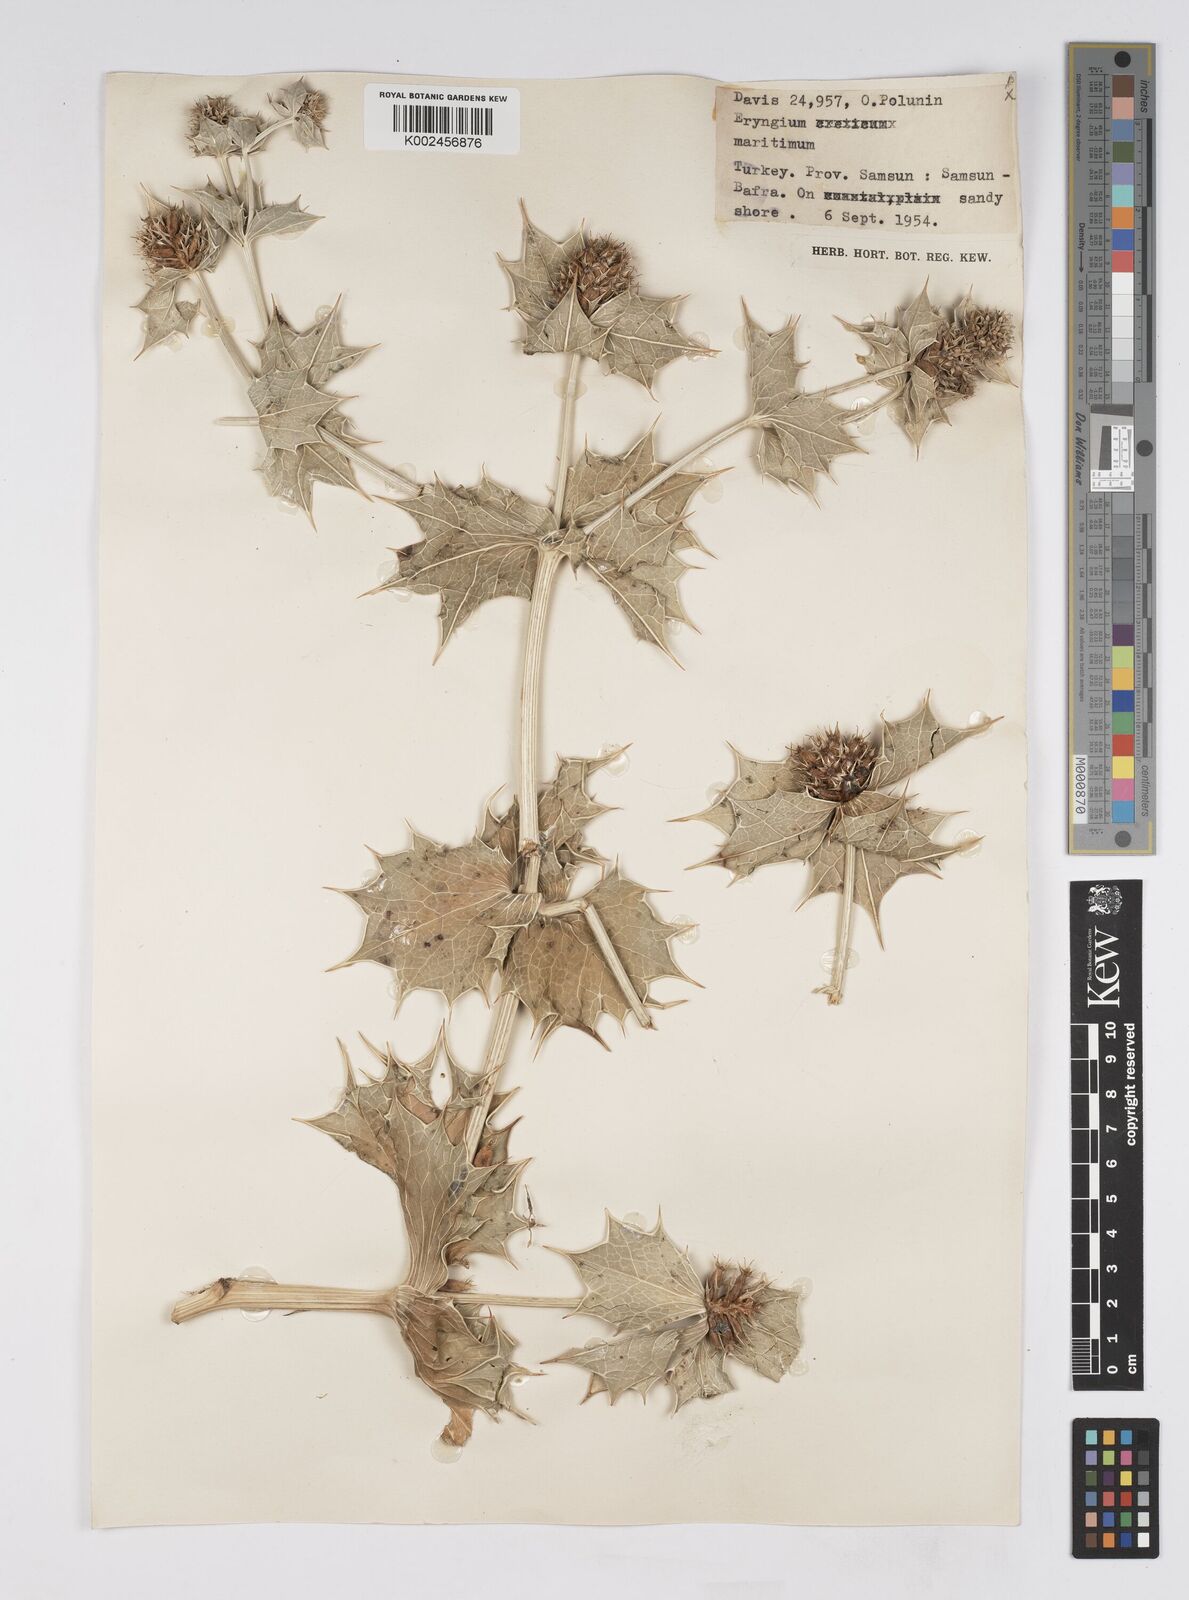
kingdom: Plantae
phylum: Tracheophyta
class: Magnoliopsida
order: Apiales
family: Apiaceae
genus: Eryngium
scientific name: Eryngium maritimum
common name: Sea-holly
